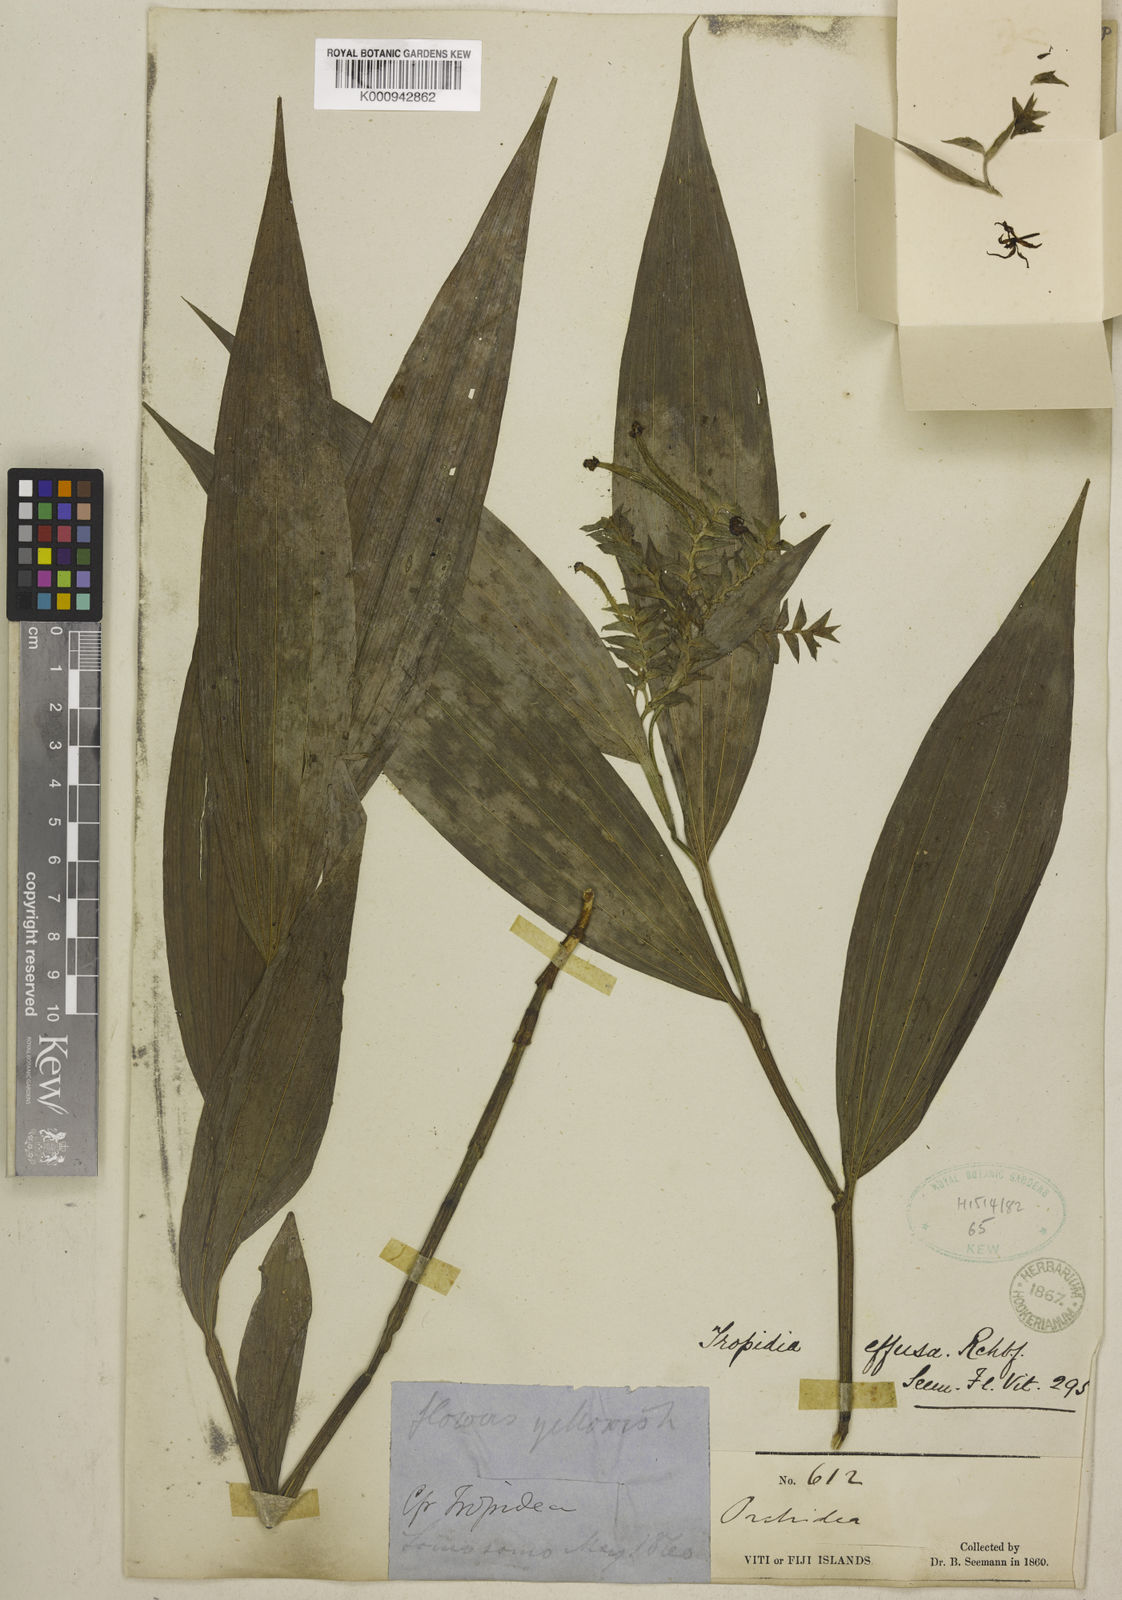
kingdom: Plantae
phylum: Tracheophyta
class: Liliopsida
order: Asparagales
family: Orchidaceae
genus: Tropidia
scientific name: Tropidia effusa
